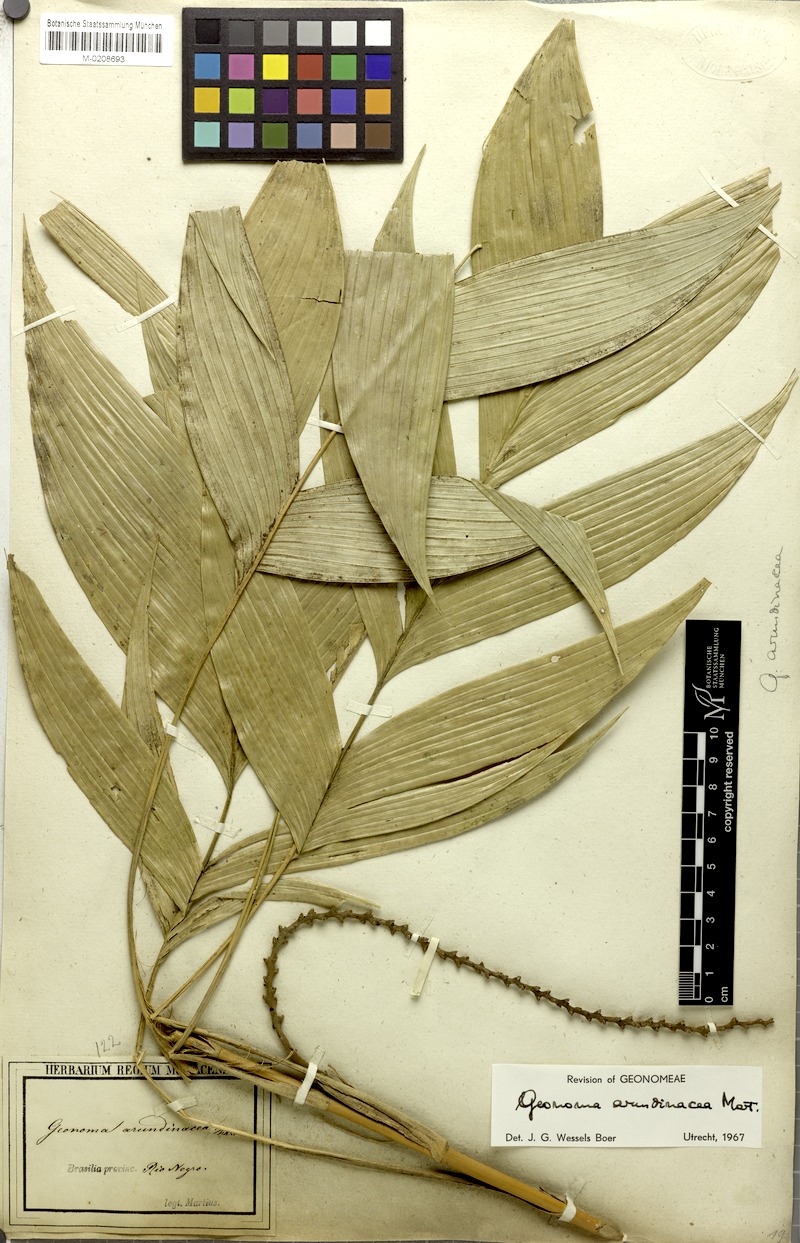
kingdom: Plantae
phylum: Tracheophyta
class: Liliopsida
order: Arecales
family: Arecaceae
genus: Geonoma
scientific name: Geonoma stricta
